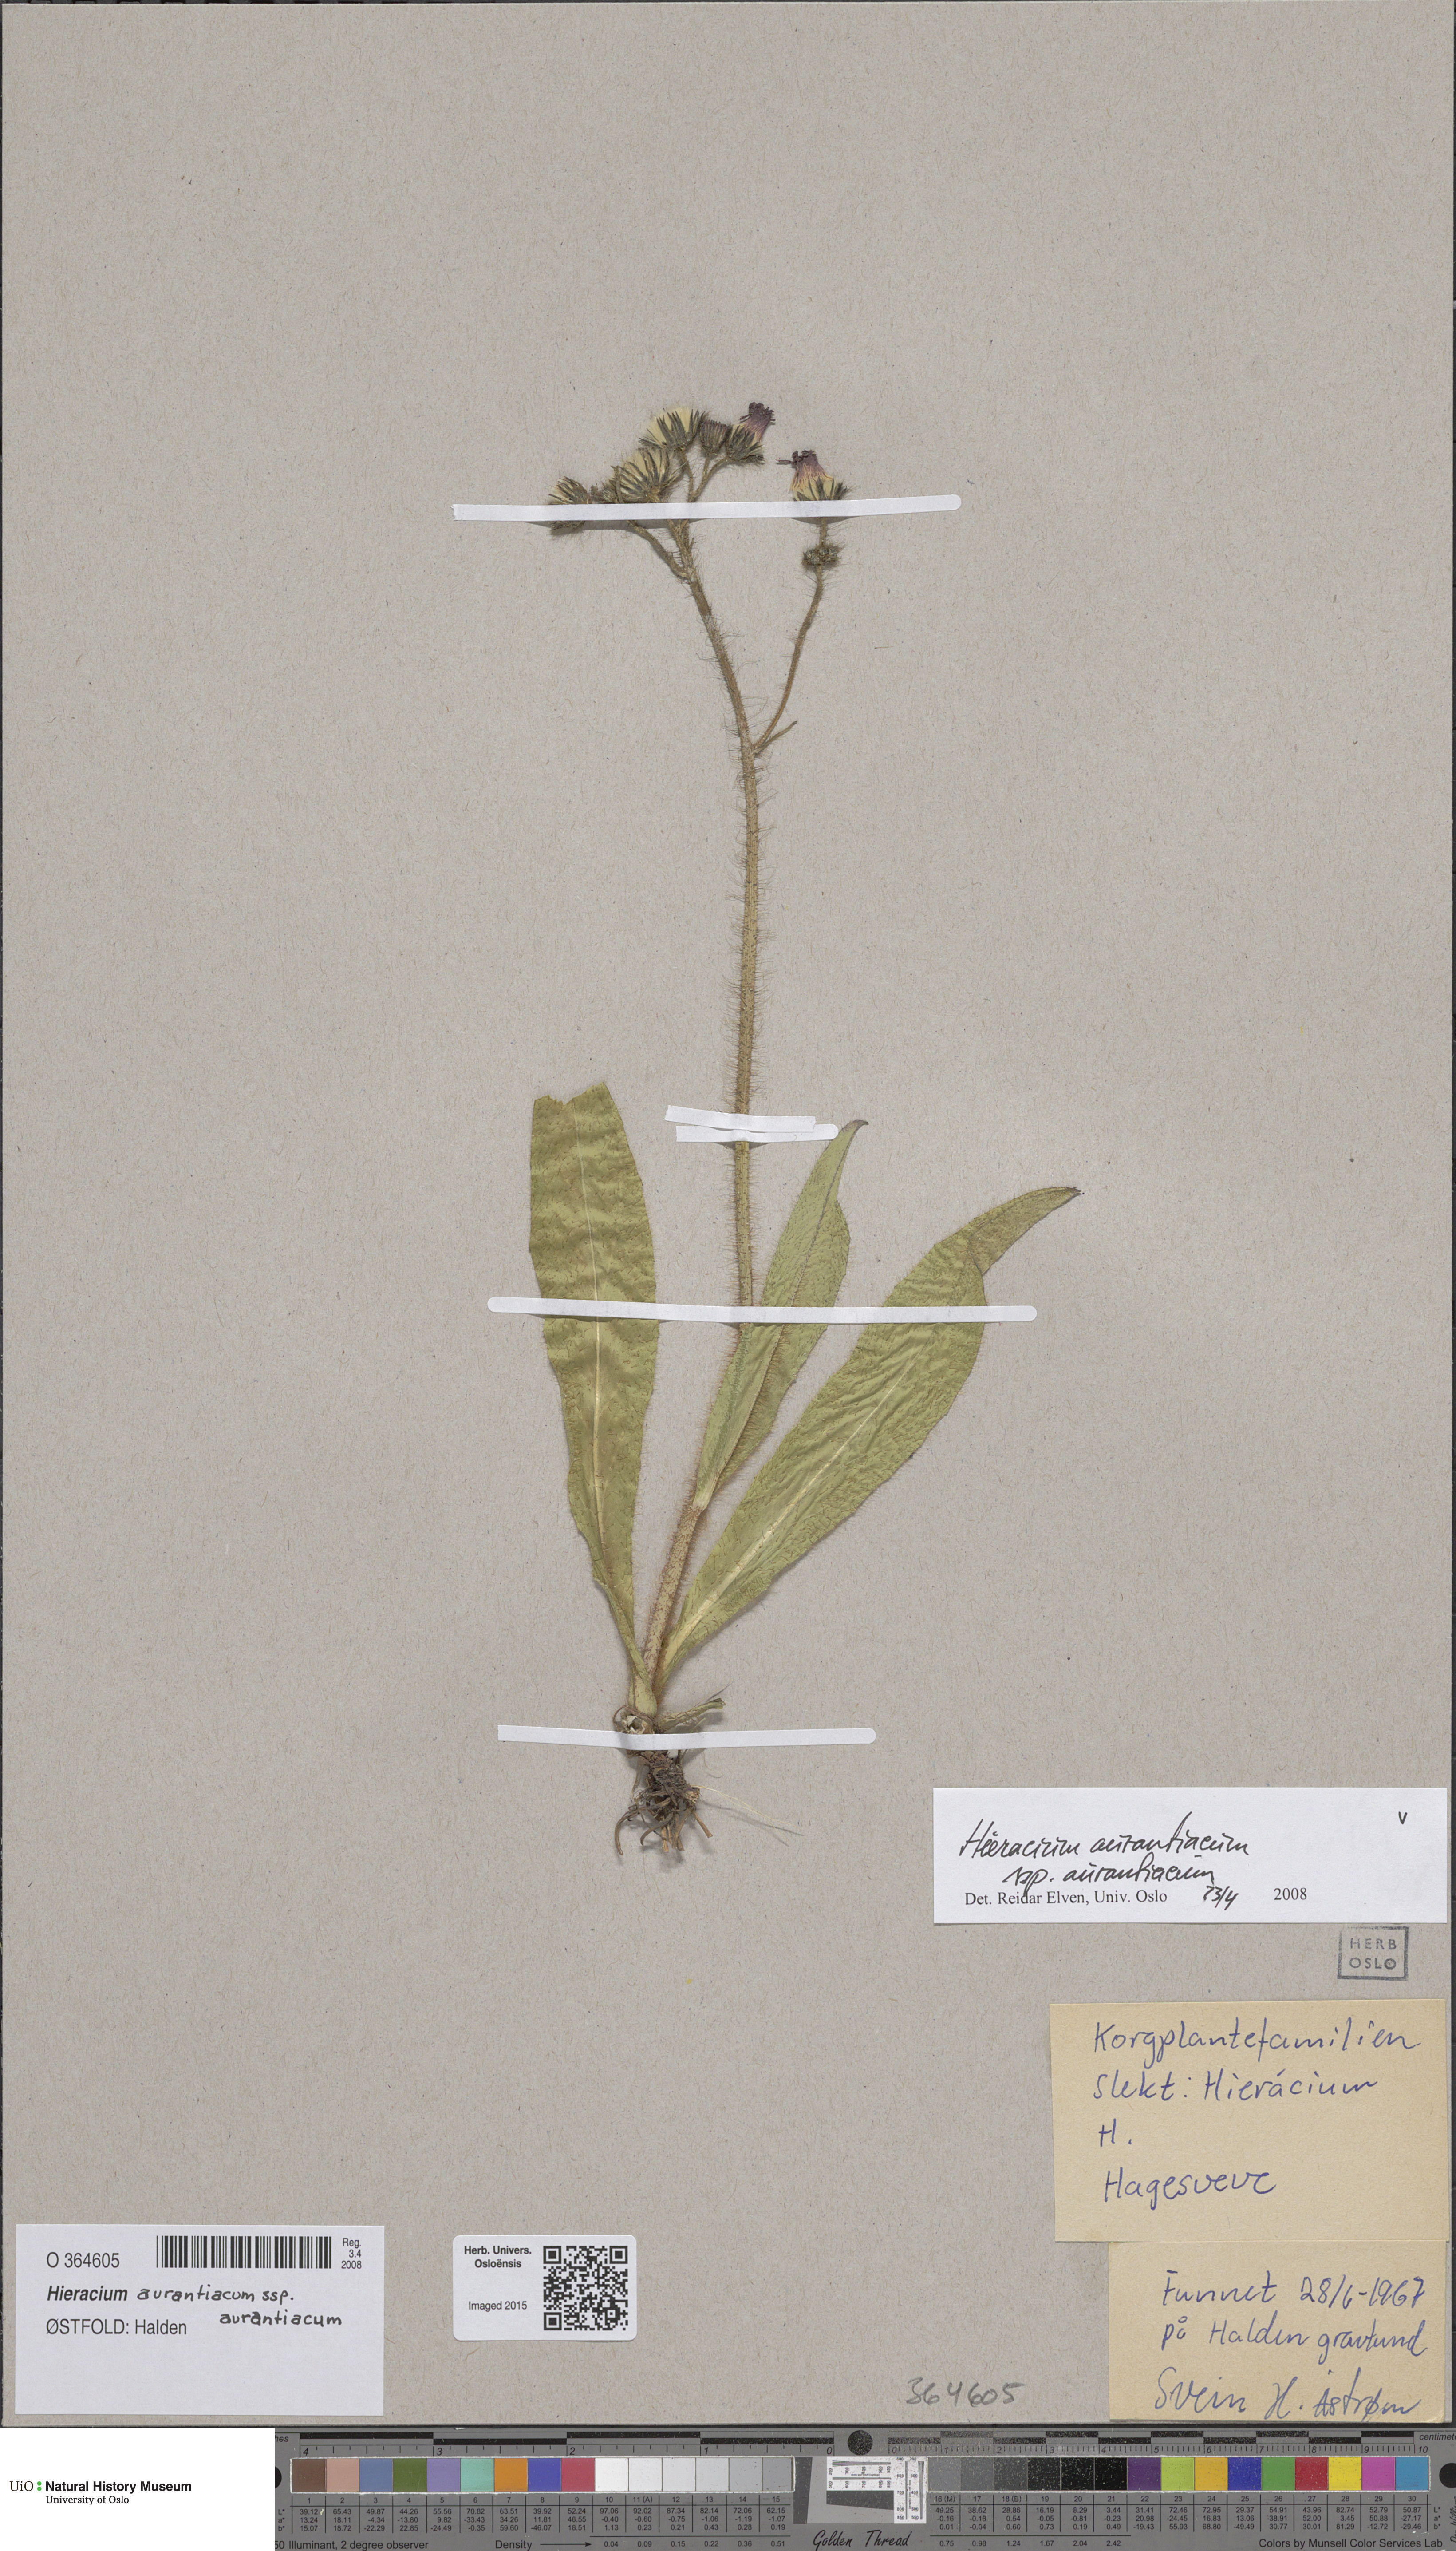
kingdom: Plantae
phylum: Tracheophyta
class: Magnoliopsida
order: Asterales
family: Asteraceae
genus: Pilosella
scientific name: Pilosella aurantiaca
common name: Fox-and-cubs
